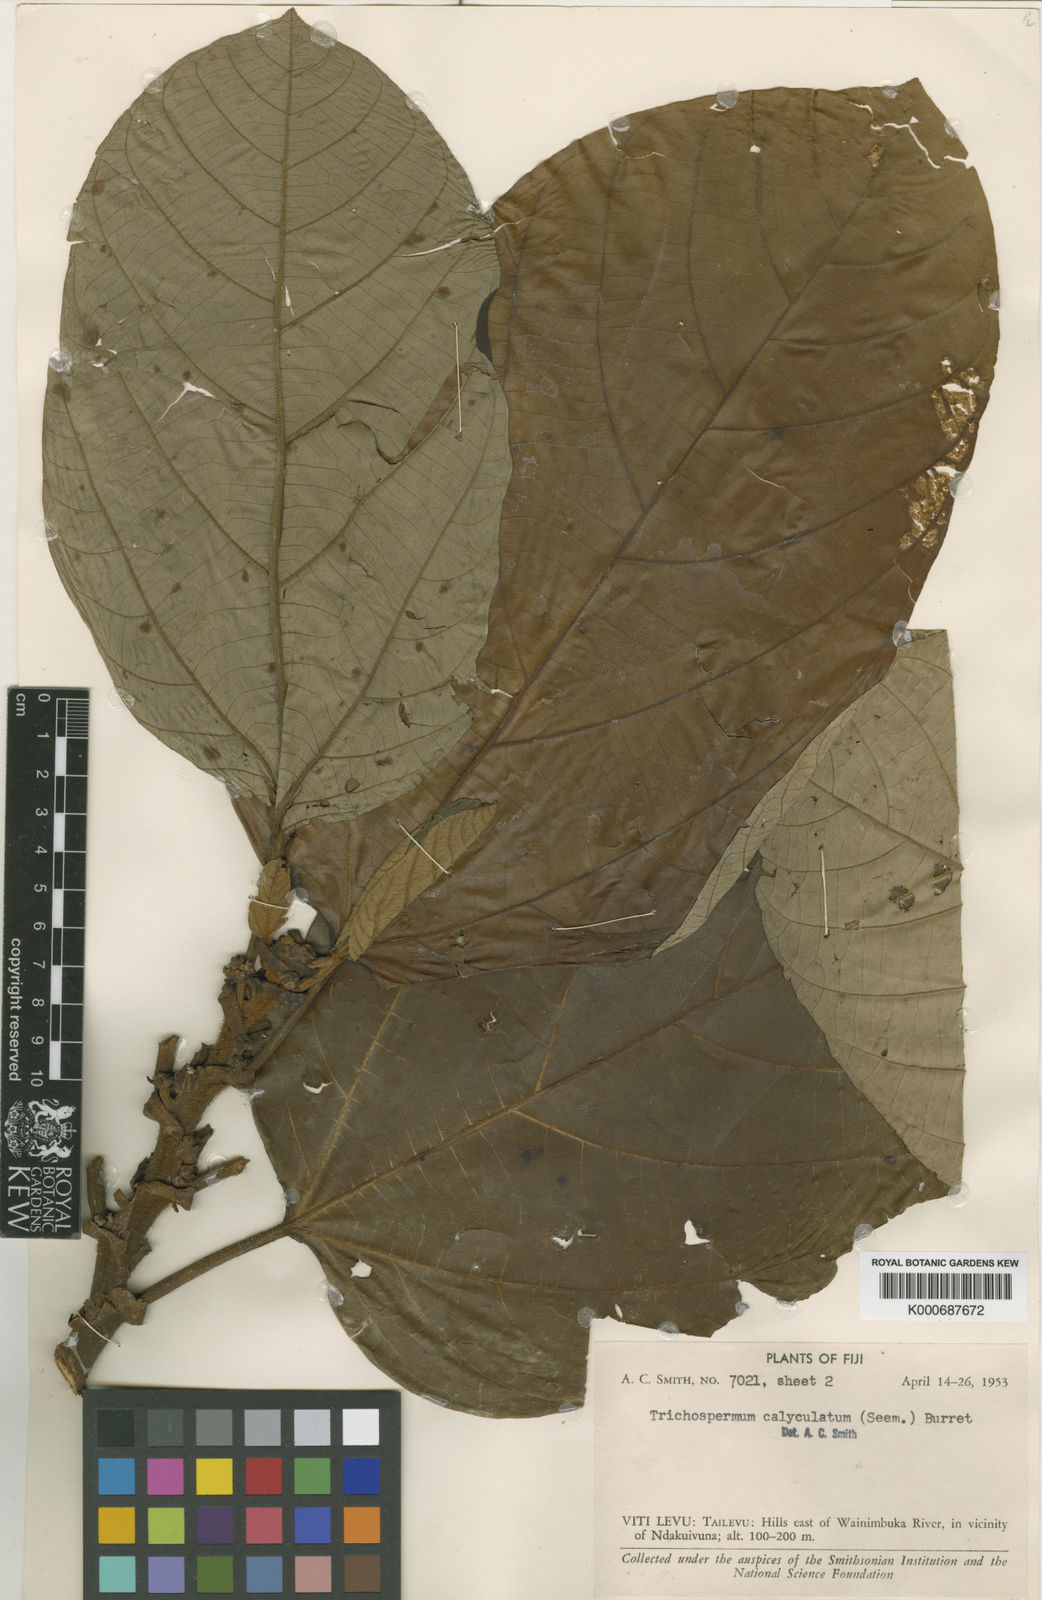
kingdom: Plantae
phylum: Tracheophyta
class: Magnoliopsida
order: Malvales
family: Malvaceae
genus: Trichospermum
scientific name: Trichospermum calyculatum
